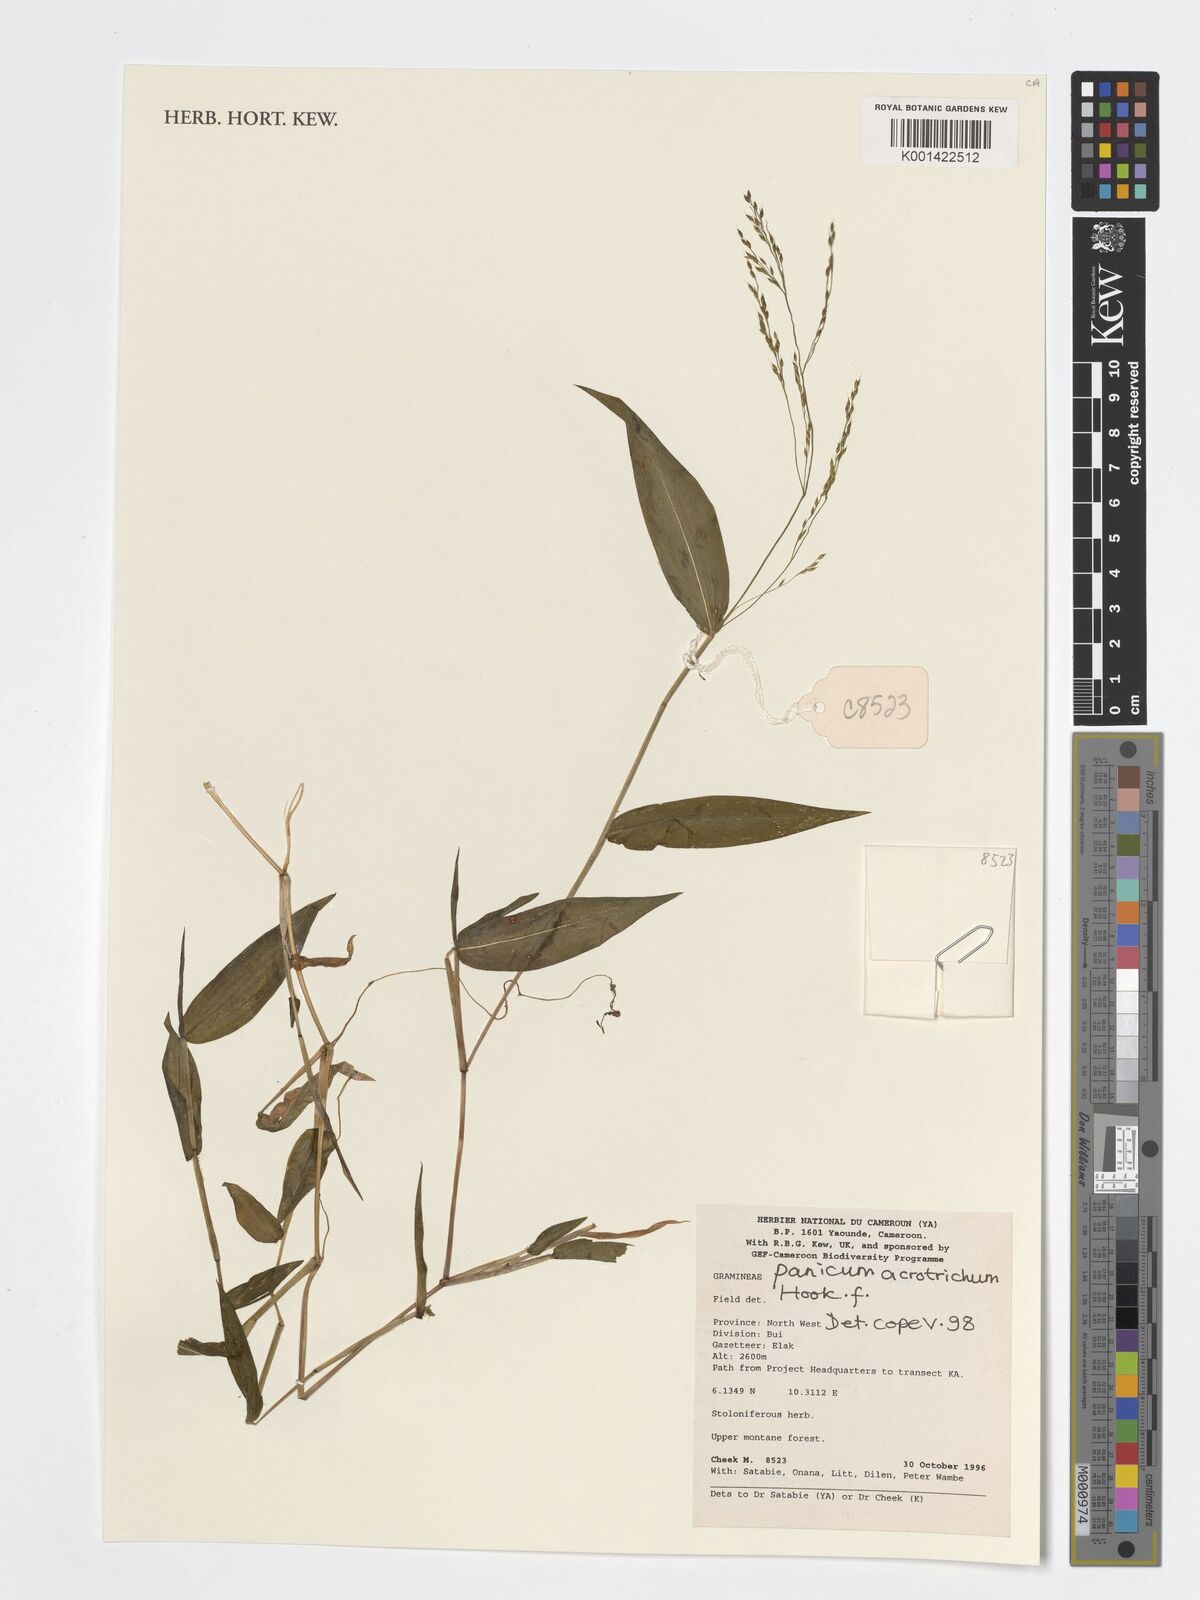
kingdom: Plantae
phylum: Tracheophyta
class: Liliopsida
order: Poales
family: Poaceae
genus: Panicum
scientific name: Panicum acrotrichum
